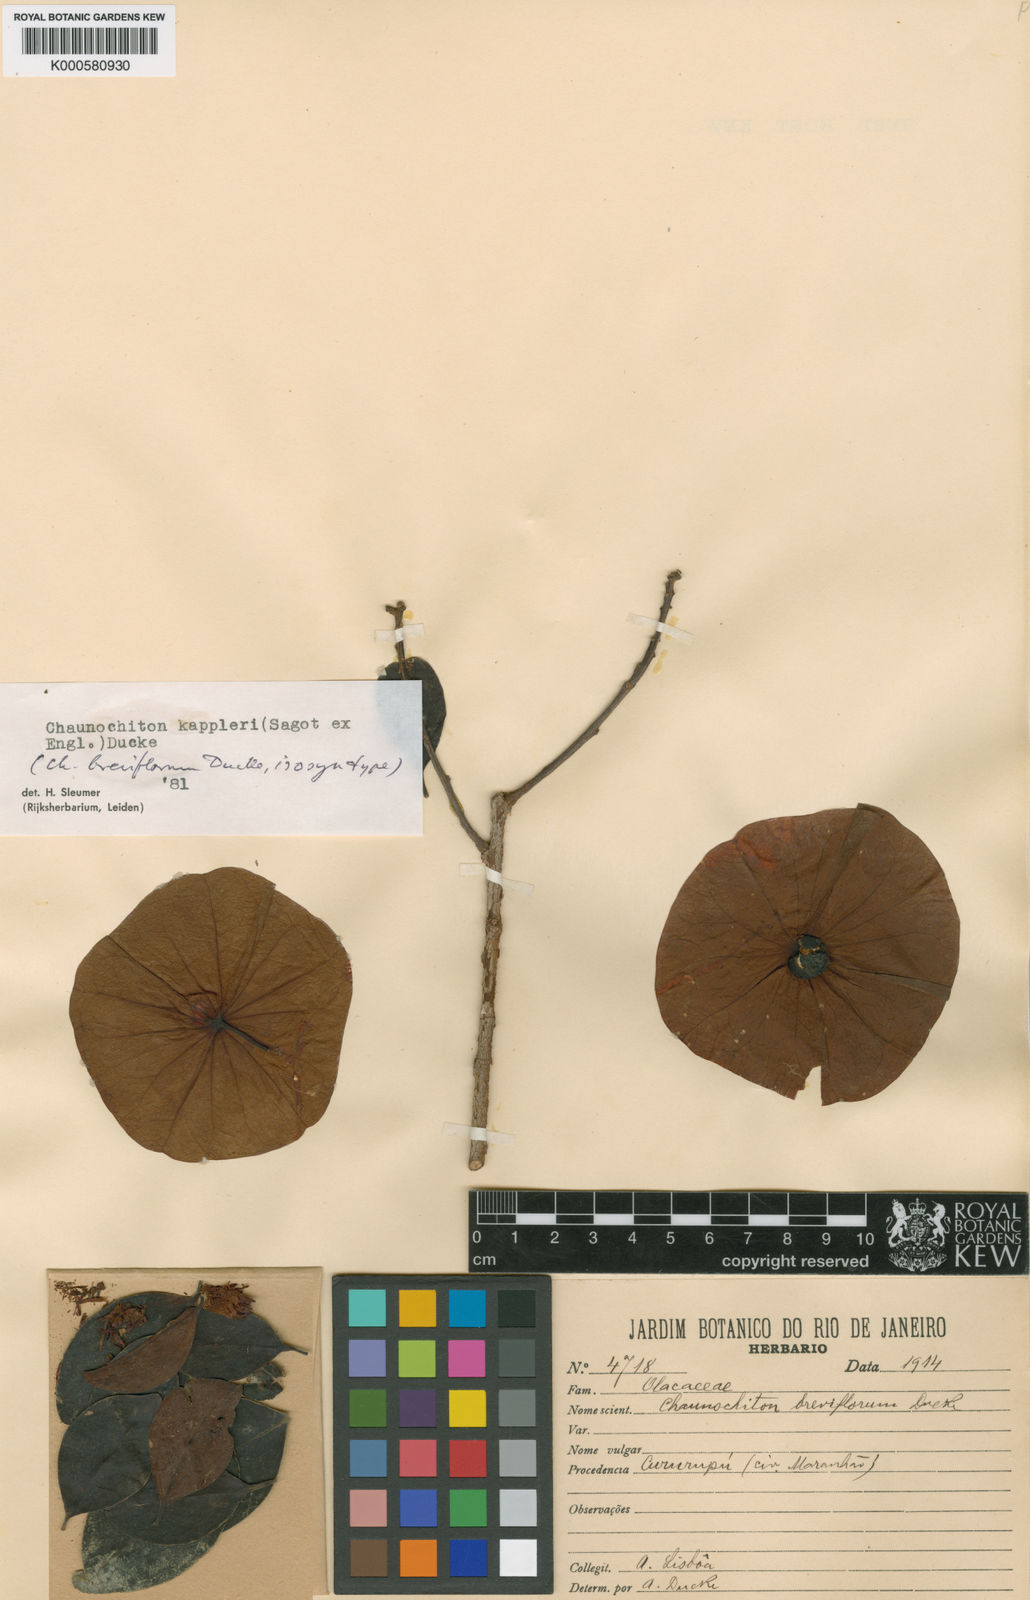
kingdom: Plantae
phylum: Tracheophyta
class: Magnoliopsida
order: Santalales
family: Aptandraceae
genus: Chaunochiton
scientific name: Chaunochiton kappleri
